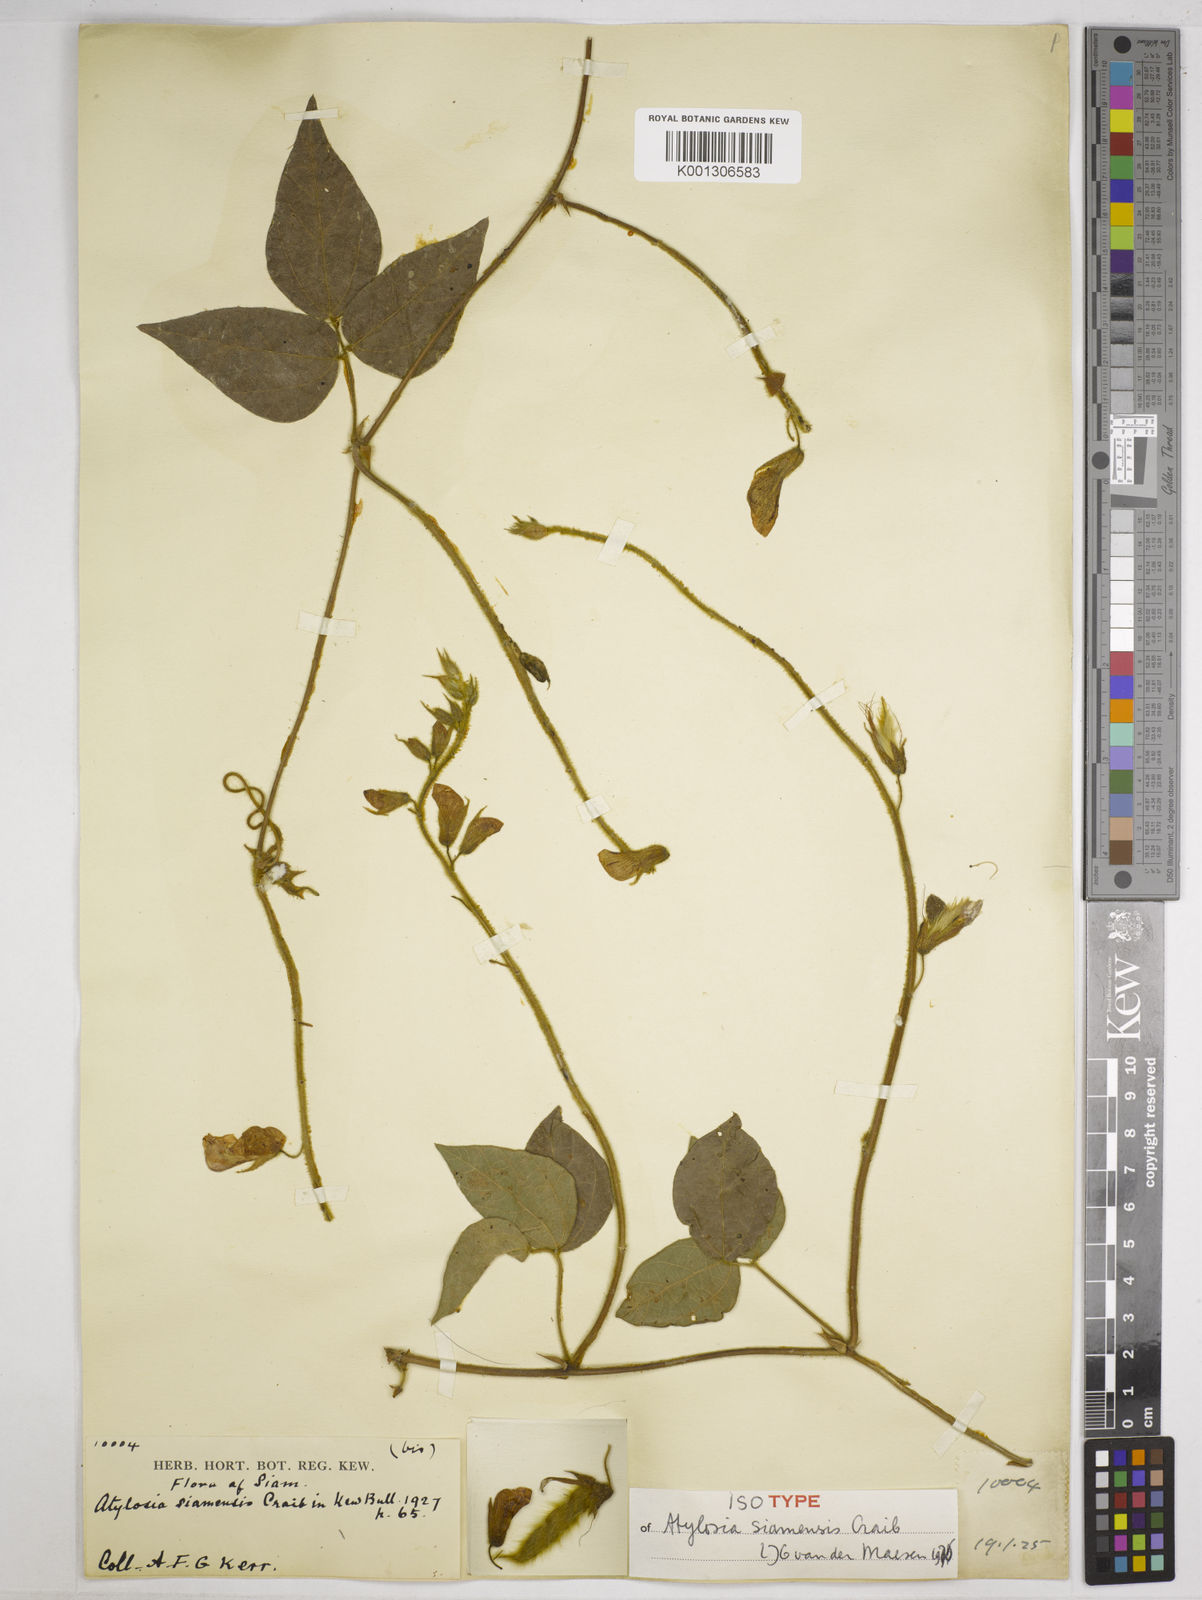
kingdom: Plantae
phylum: Tracheophyta
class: Magnoliopsida
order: Fabales
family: Fabaceae
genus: Cajanus
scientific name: Cajanus goensis
